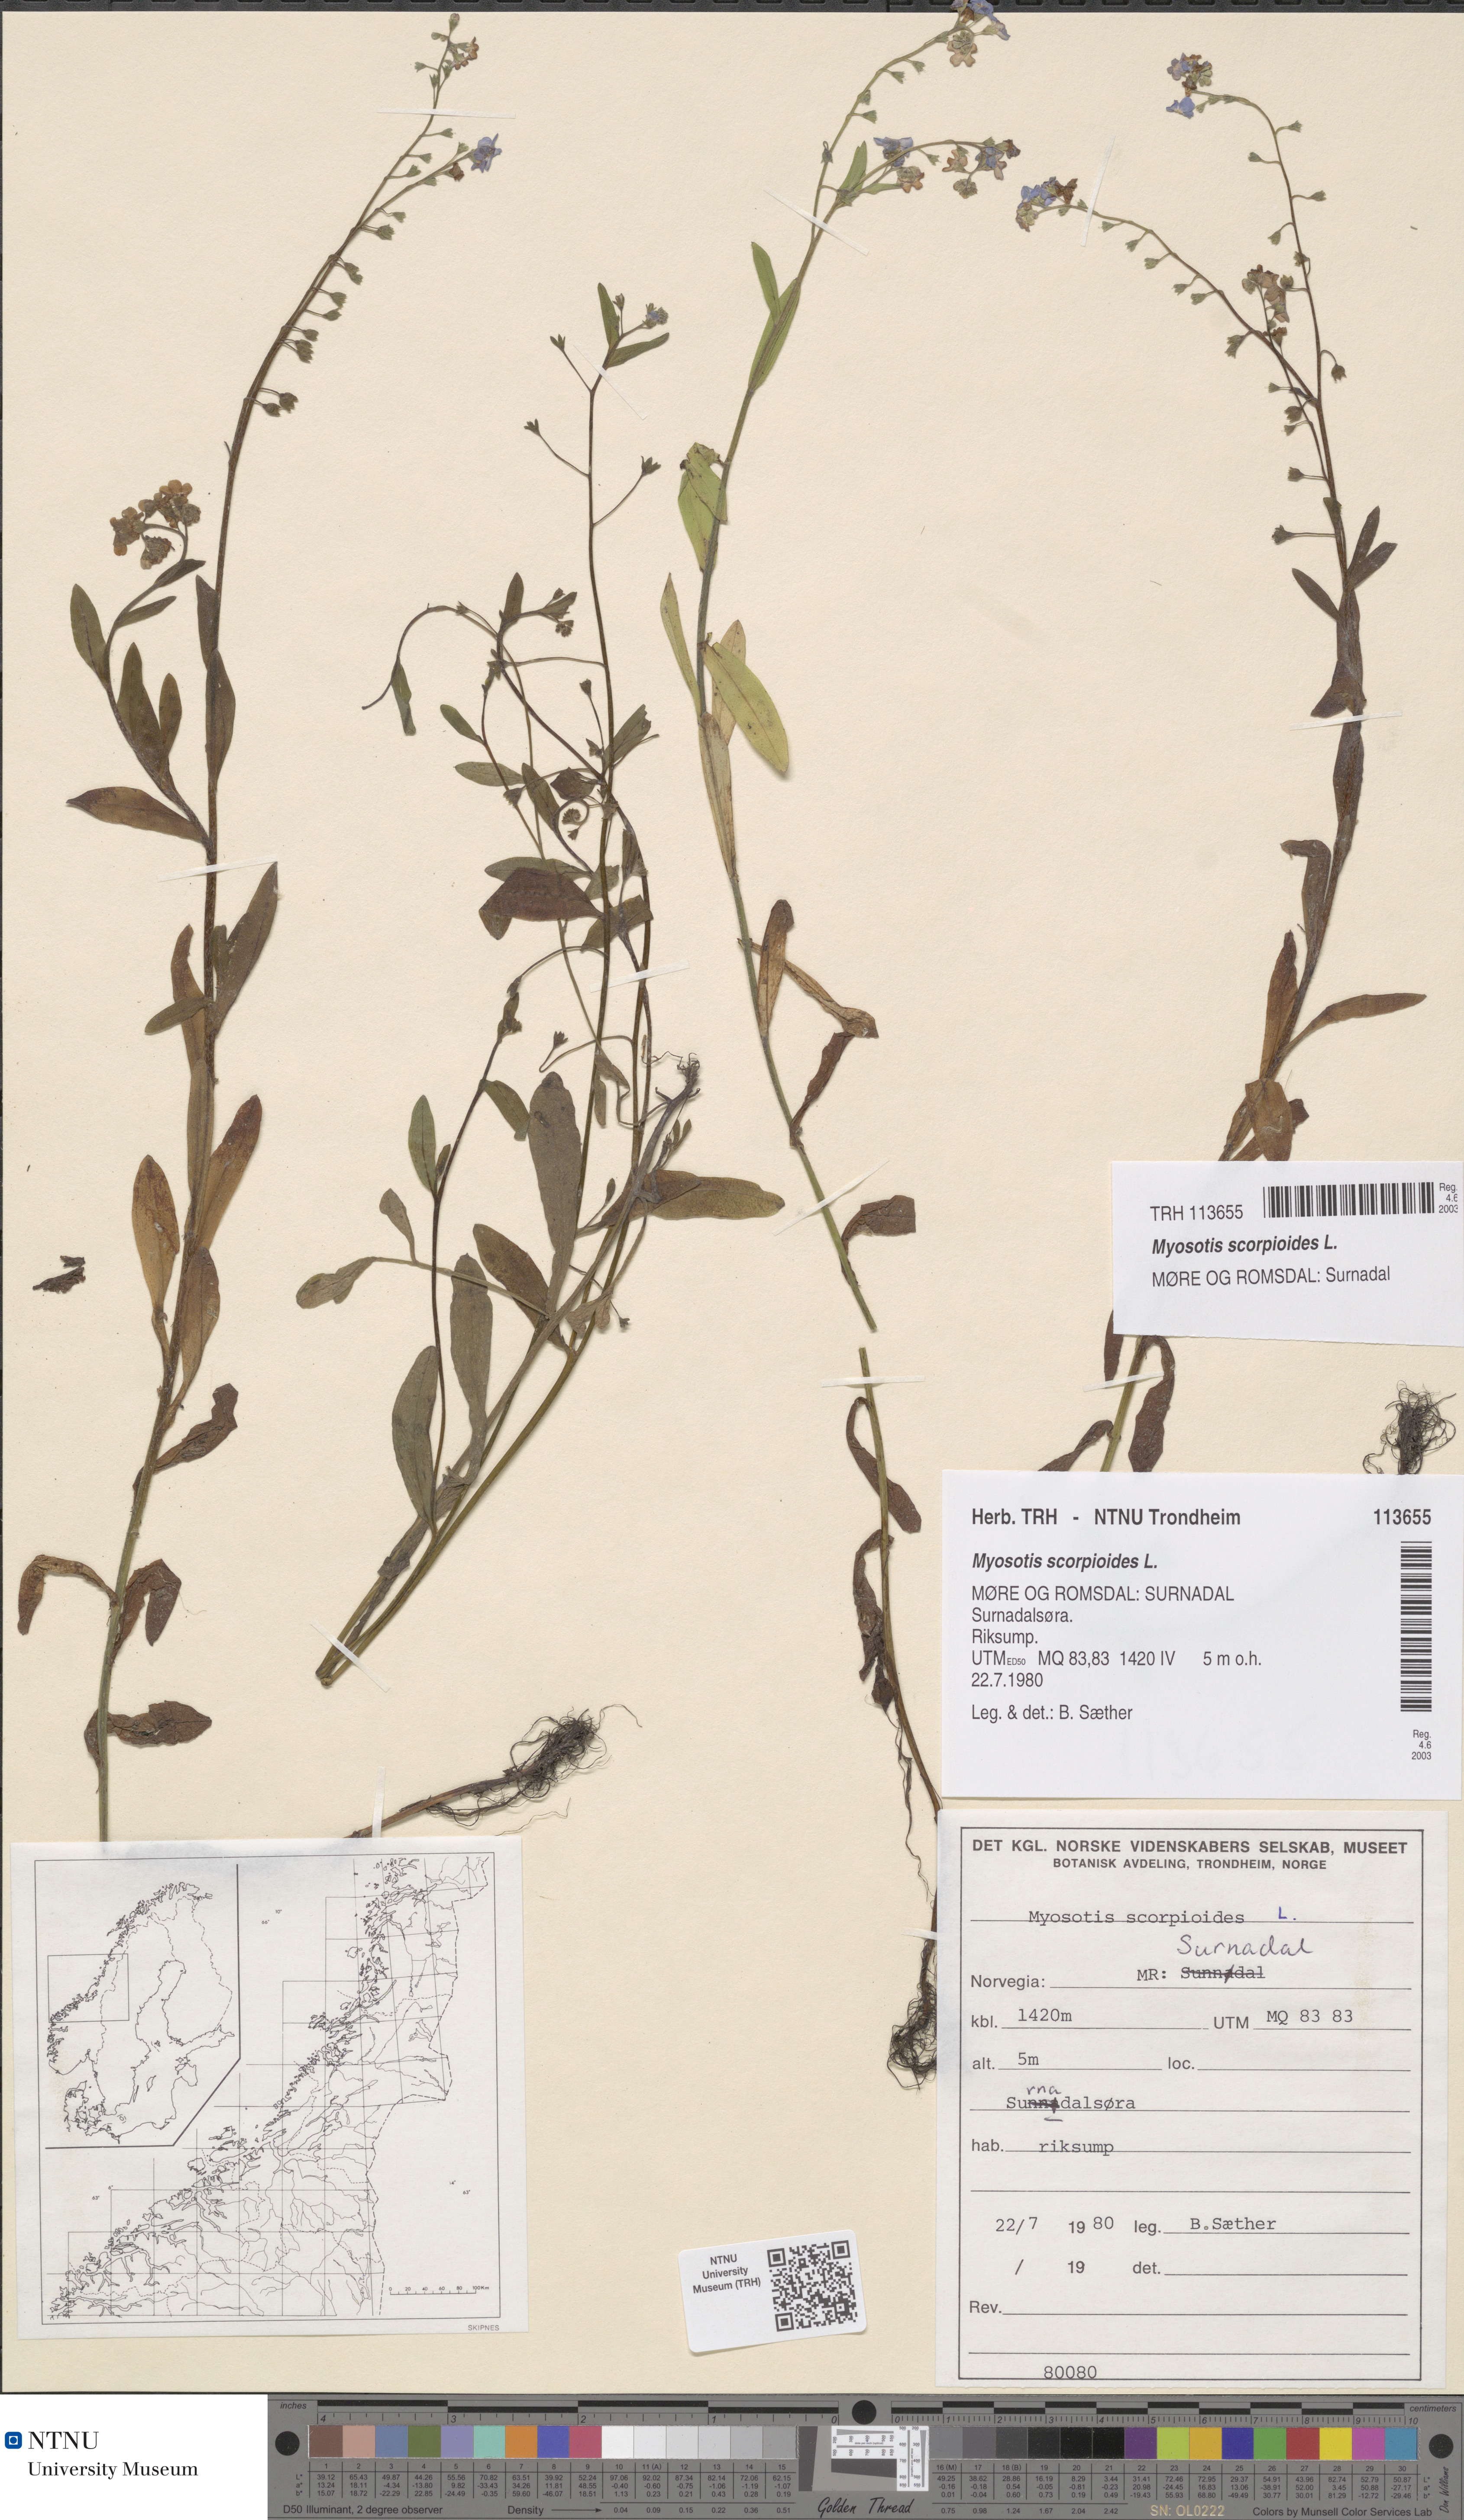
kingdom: Plantae
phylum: Tracheophyta
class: Magnoliopsida
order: Boraginales
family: Boraginaceae
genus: Myosotis
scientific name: Myosotis scorpioides
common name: Water forget-me-not
